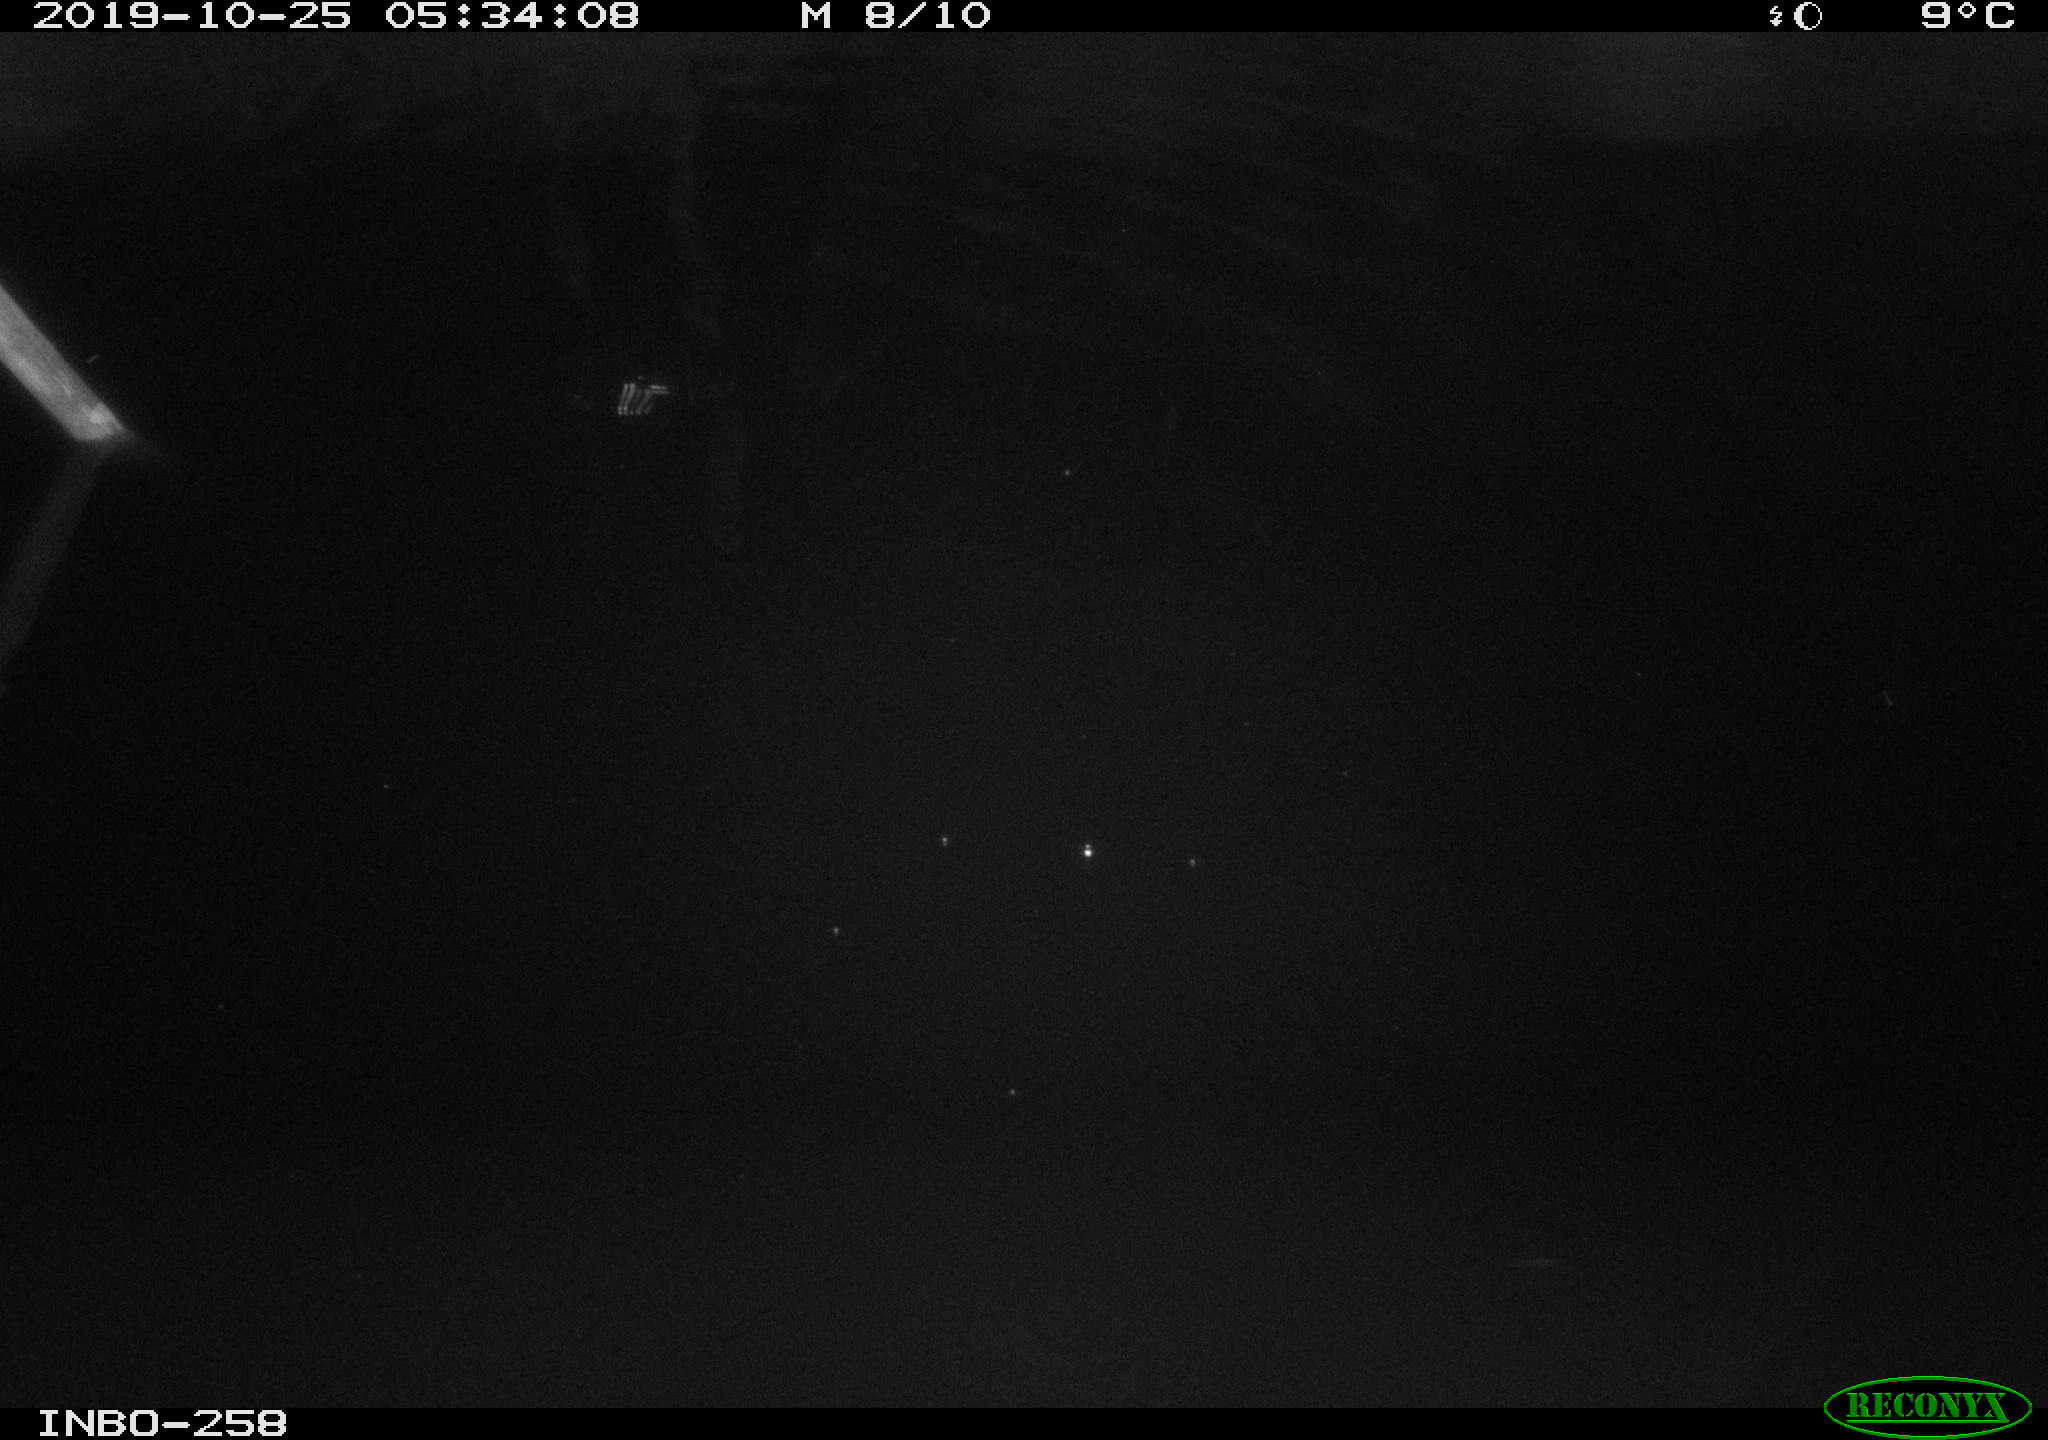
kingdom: Animalia
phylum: Chordata
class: Mammalia
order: Rodentia
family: Muridae
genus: Rattus
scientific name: Rattus norvegicus
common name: Brown rat
